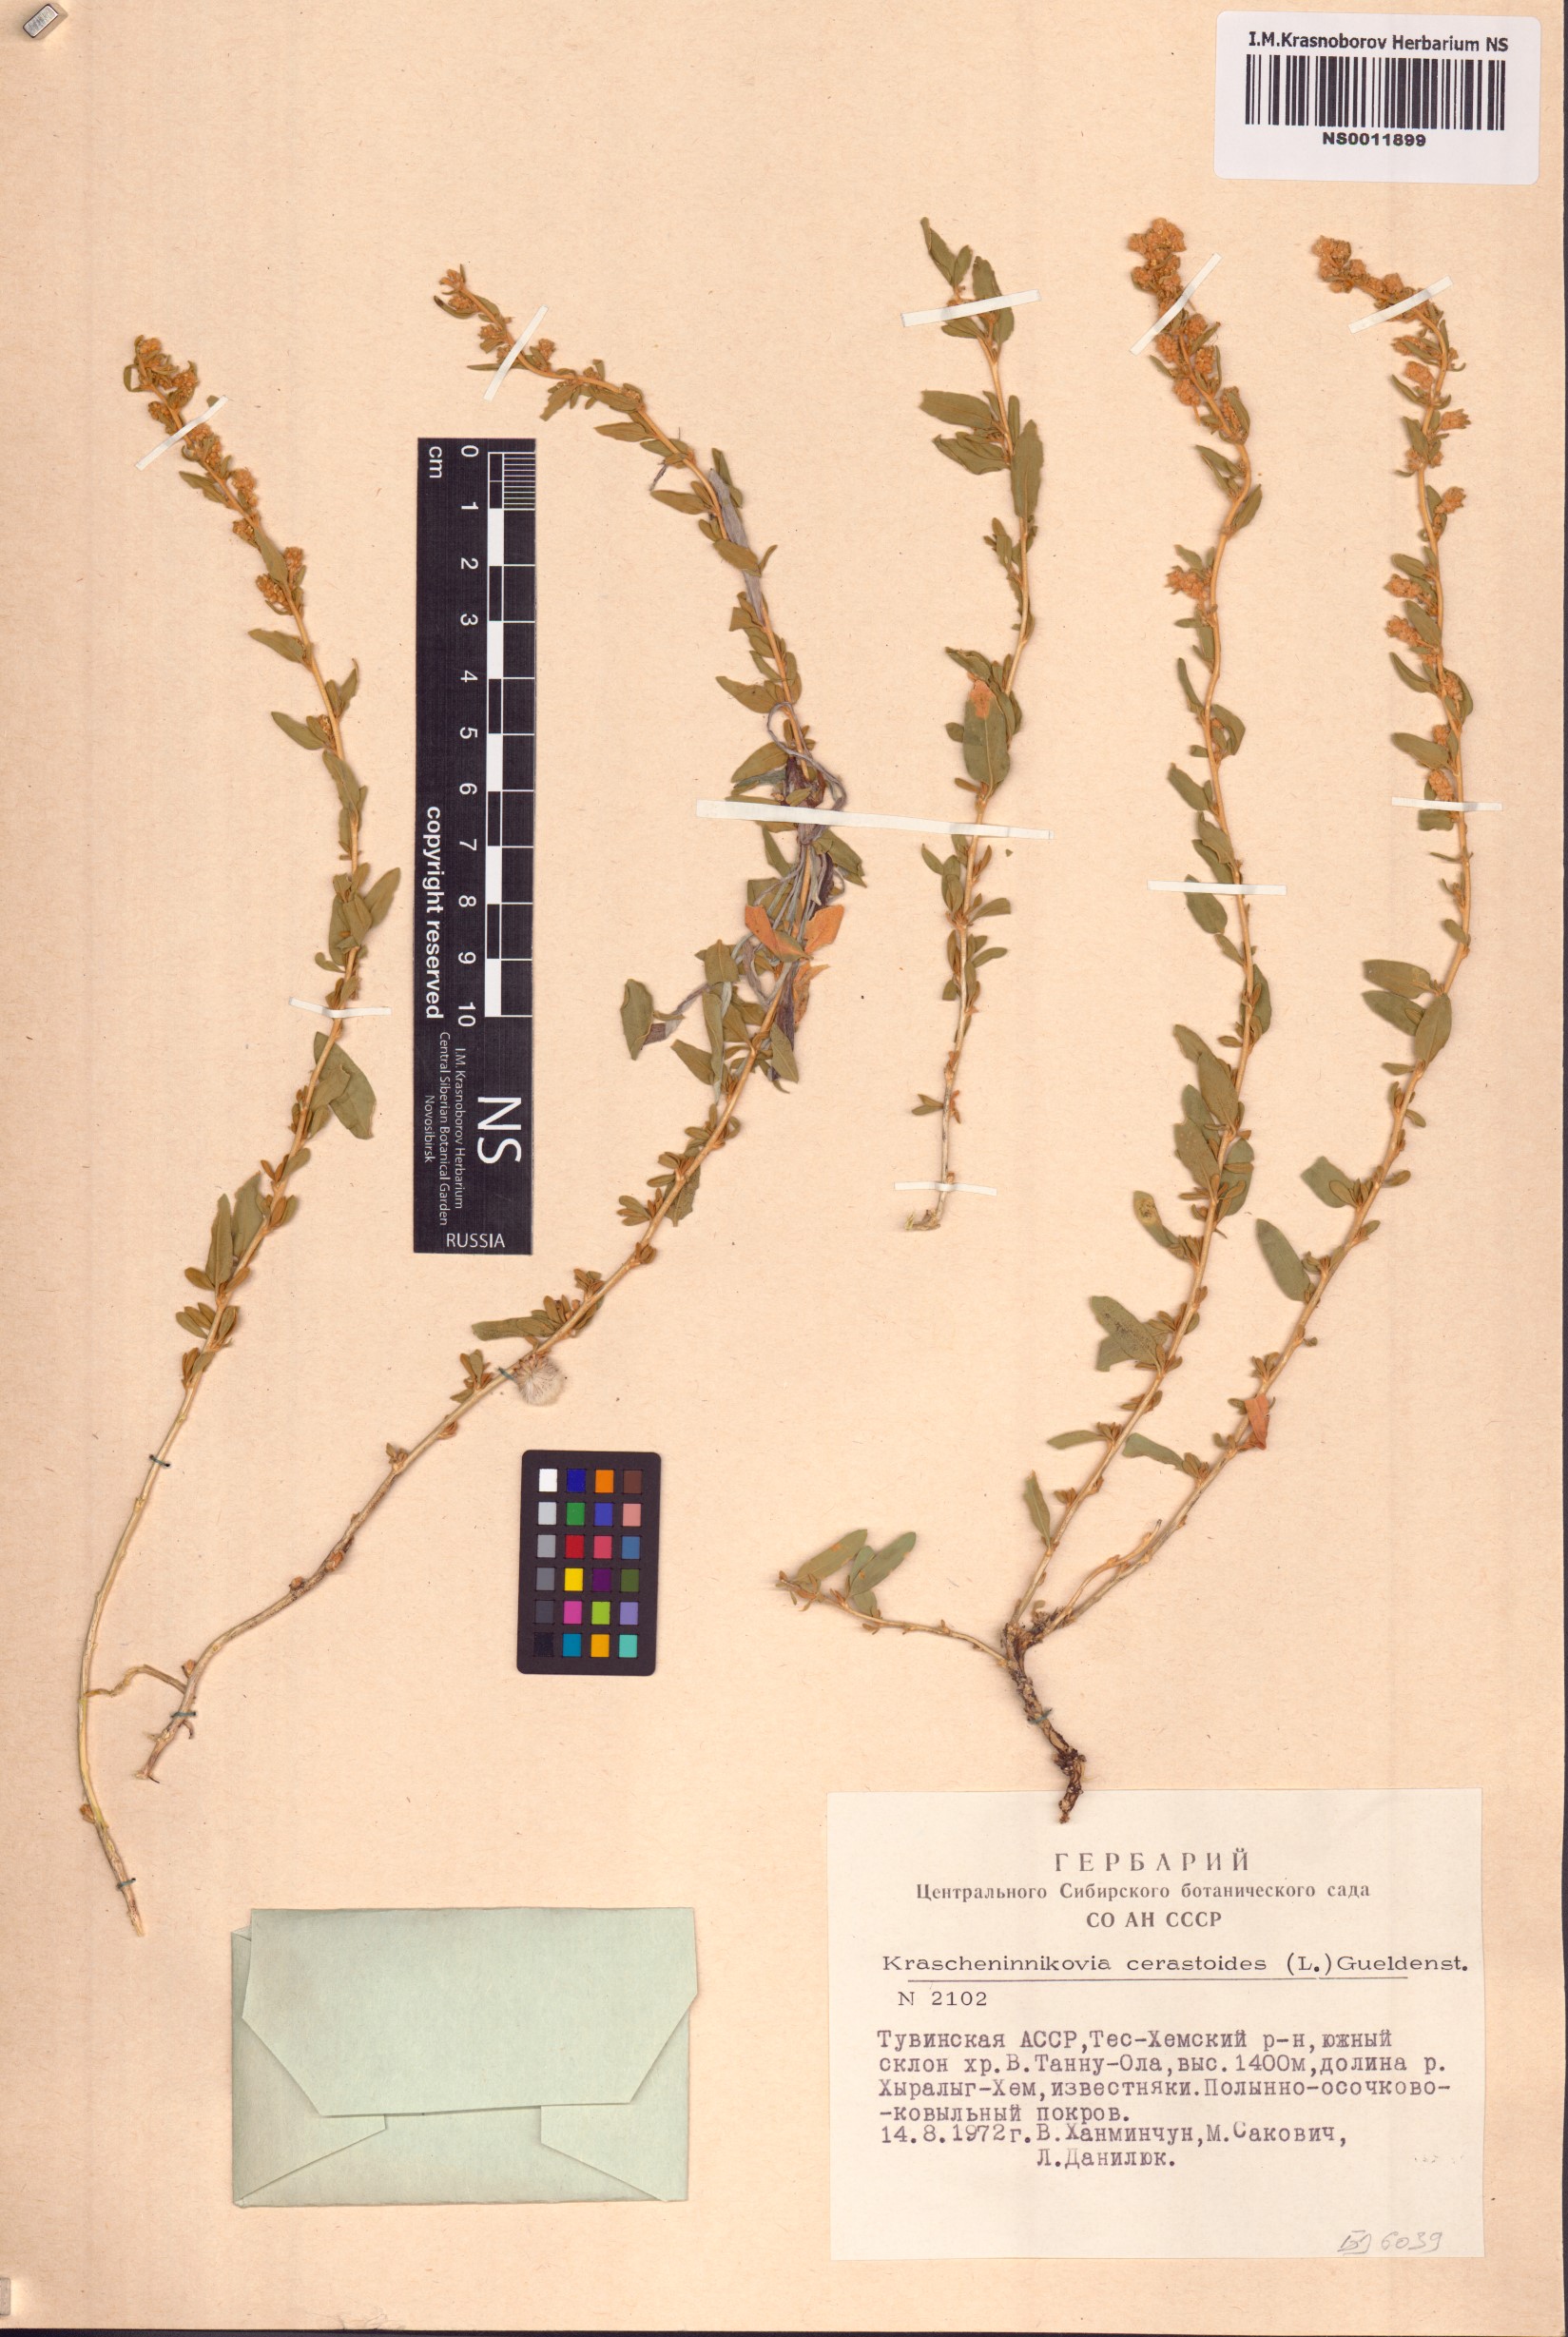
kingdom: Plantae
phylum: Tracheophyta
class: Magnoliopsida
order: Caryophyllales
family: Amaranthaceae
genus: Krascheninnikovia
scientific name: Krascheninnikovia ceratoides
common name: Pamirian winterfat
